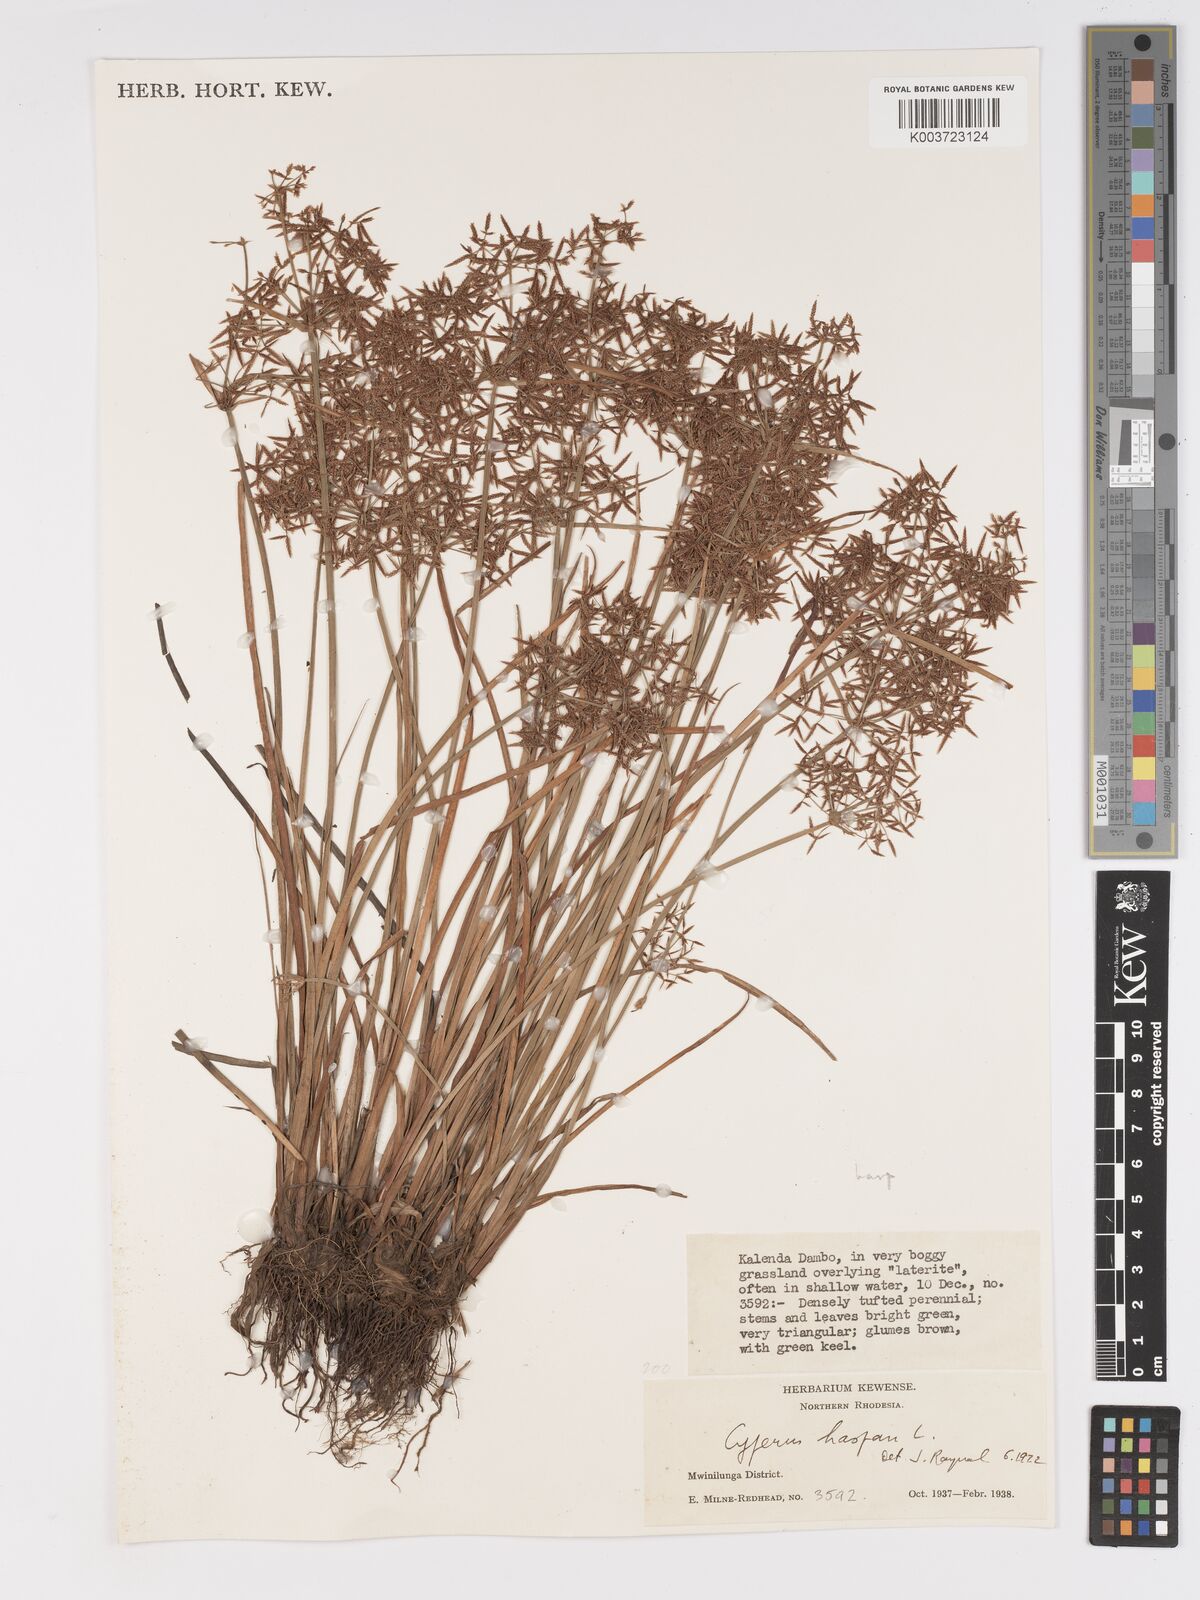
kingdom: Plantae
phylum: Tracheophyta
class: Liliopsida
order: Poales
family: Cyperaceae
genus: Cyperus
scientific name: Cyperus haspan
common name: Haspan flatsedge
